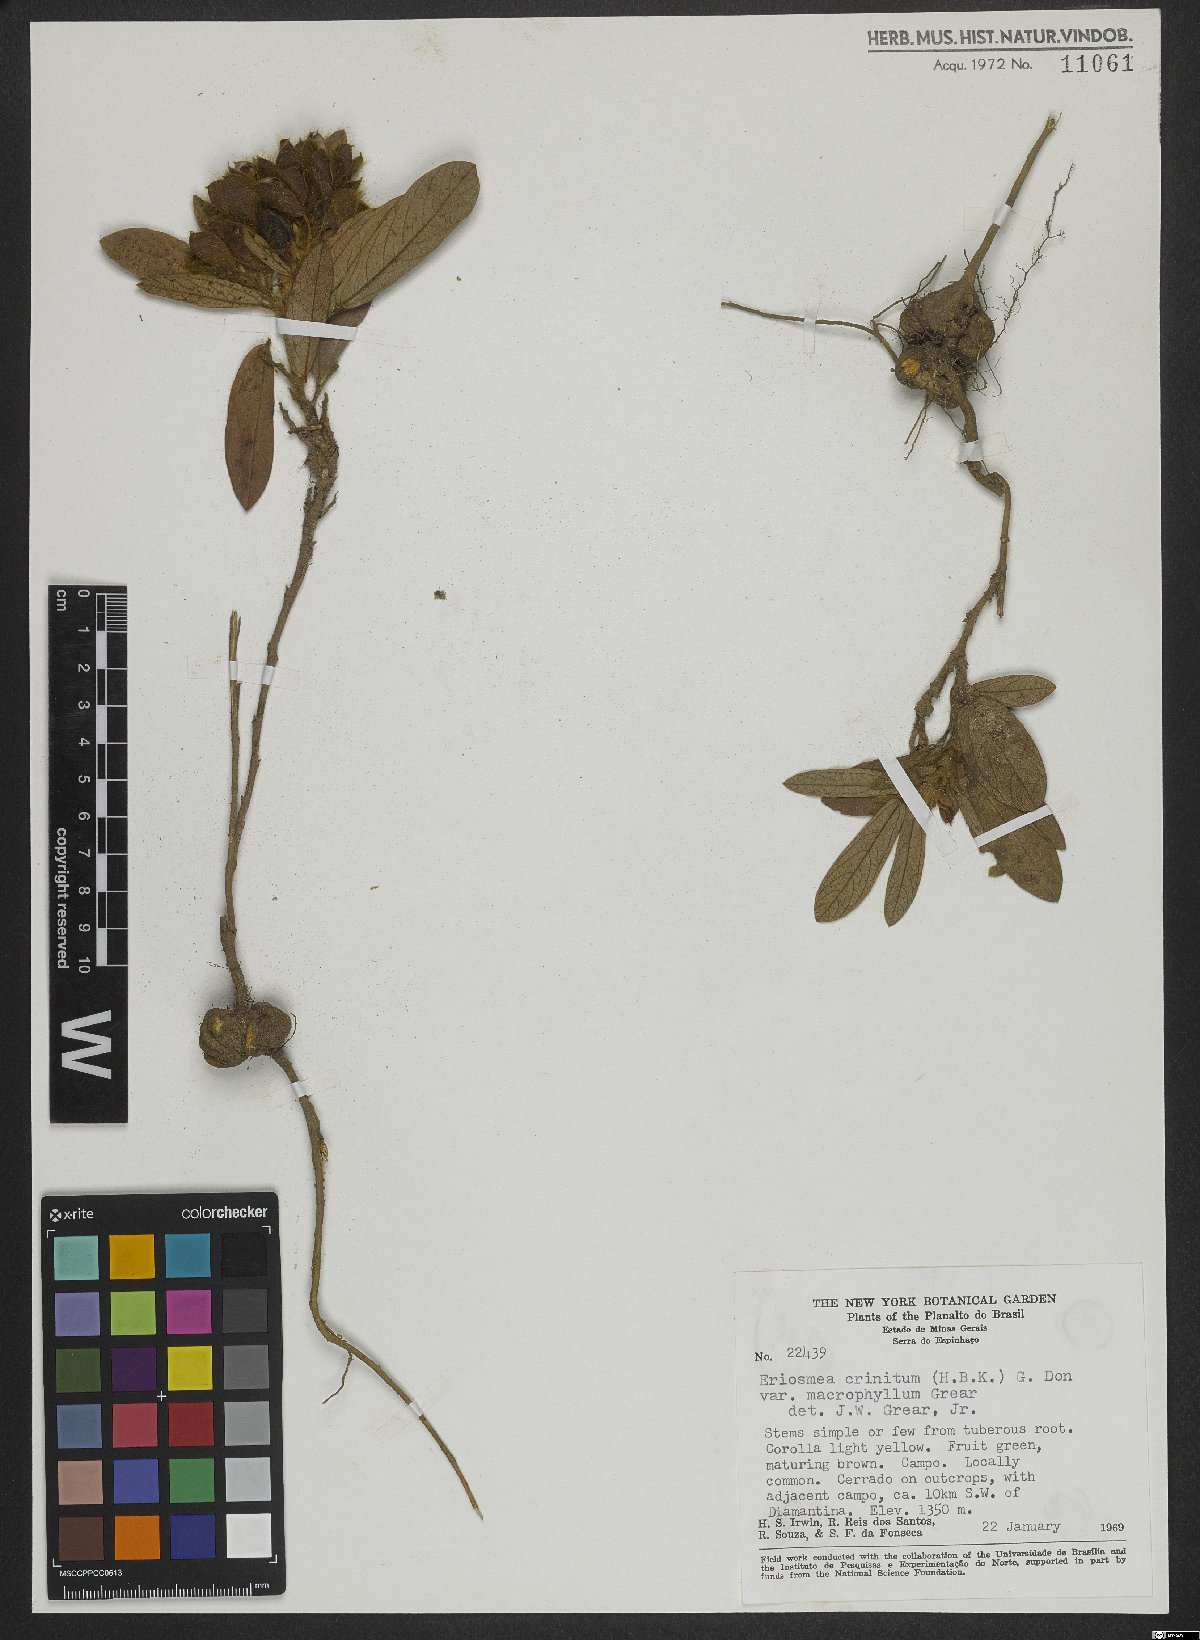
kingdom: Plantae
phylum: Tracheophyta
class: Magnoliopsida
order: Fabales
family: Fabaceae
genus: Eriosema
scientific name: Eriosema campestre
